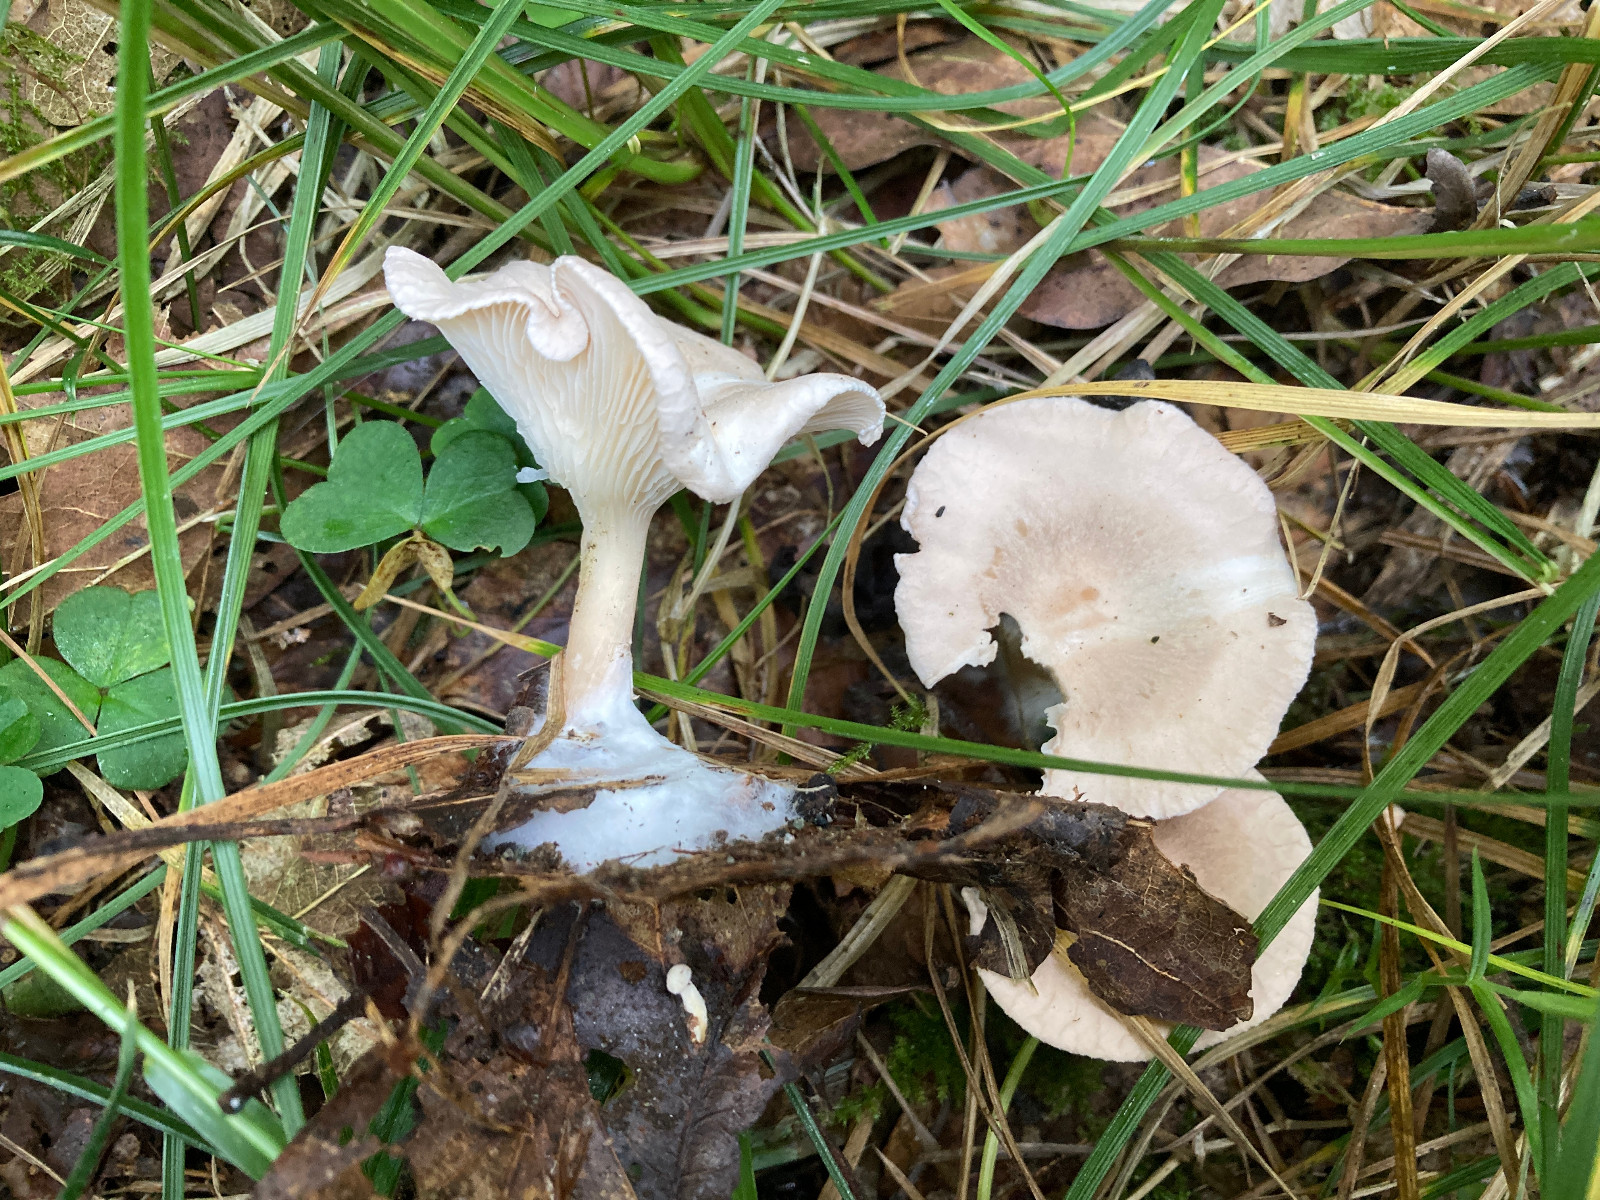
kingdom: Fungi
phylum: Basidiomycota
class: Agaricomycetes
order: Agaricales
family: Tricholomataceae
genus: Infundibulicybe
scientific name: Infundibulicybe gibba
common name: almindelig tragthat
